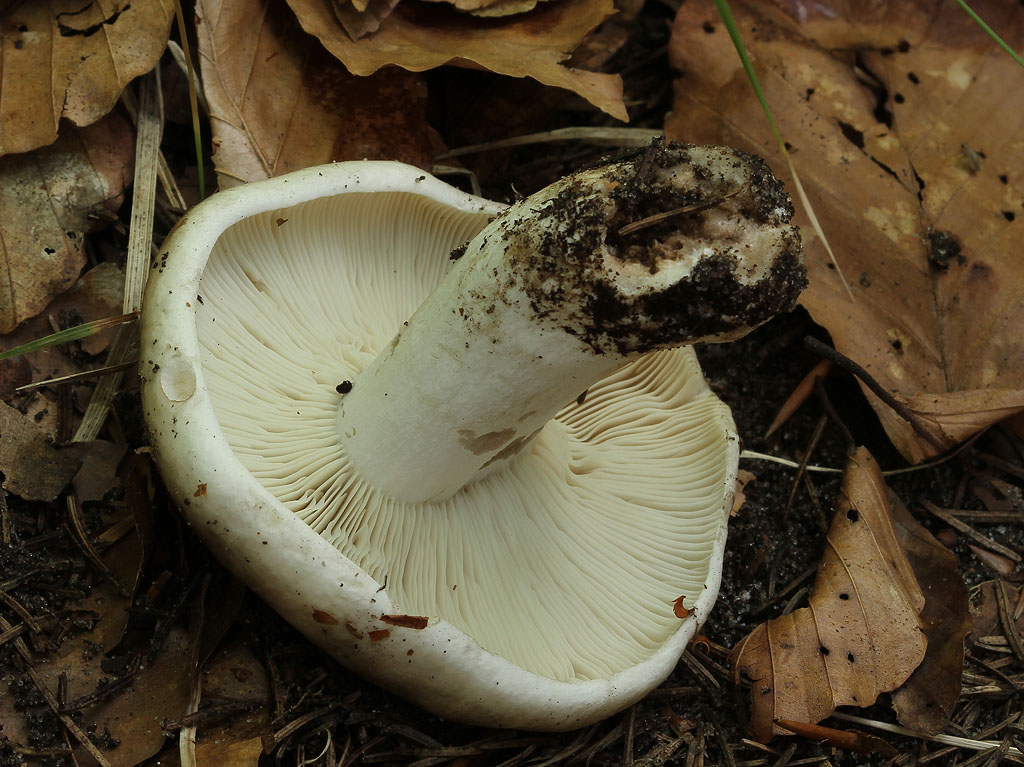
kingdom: Fungi
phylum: Basidiomycota
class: Agaricomycetes
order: Russulales
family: Russulaceae
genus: Russula
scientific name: Russula densifolia
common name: tætbladet skørhat
